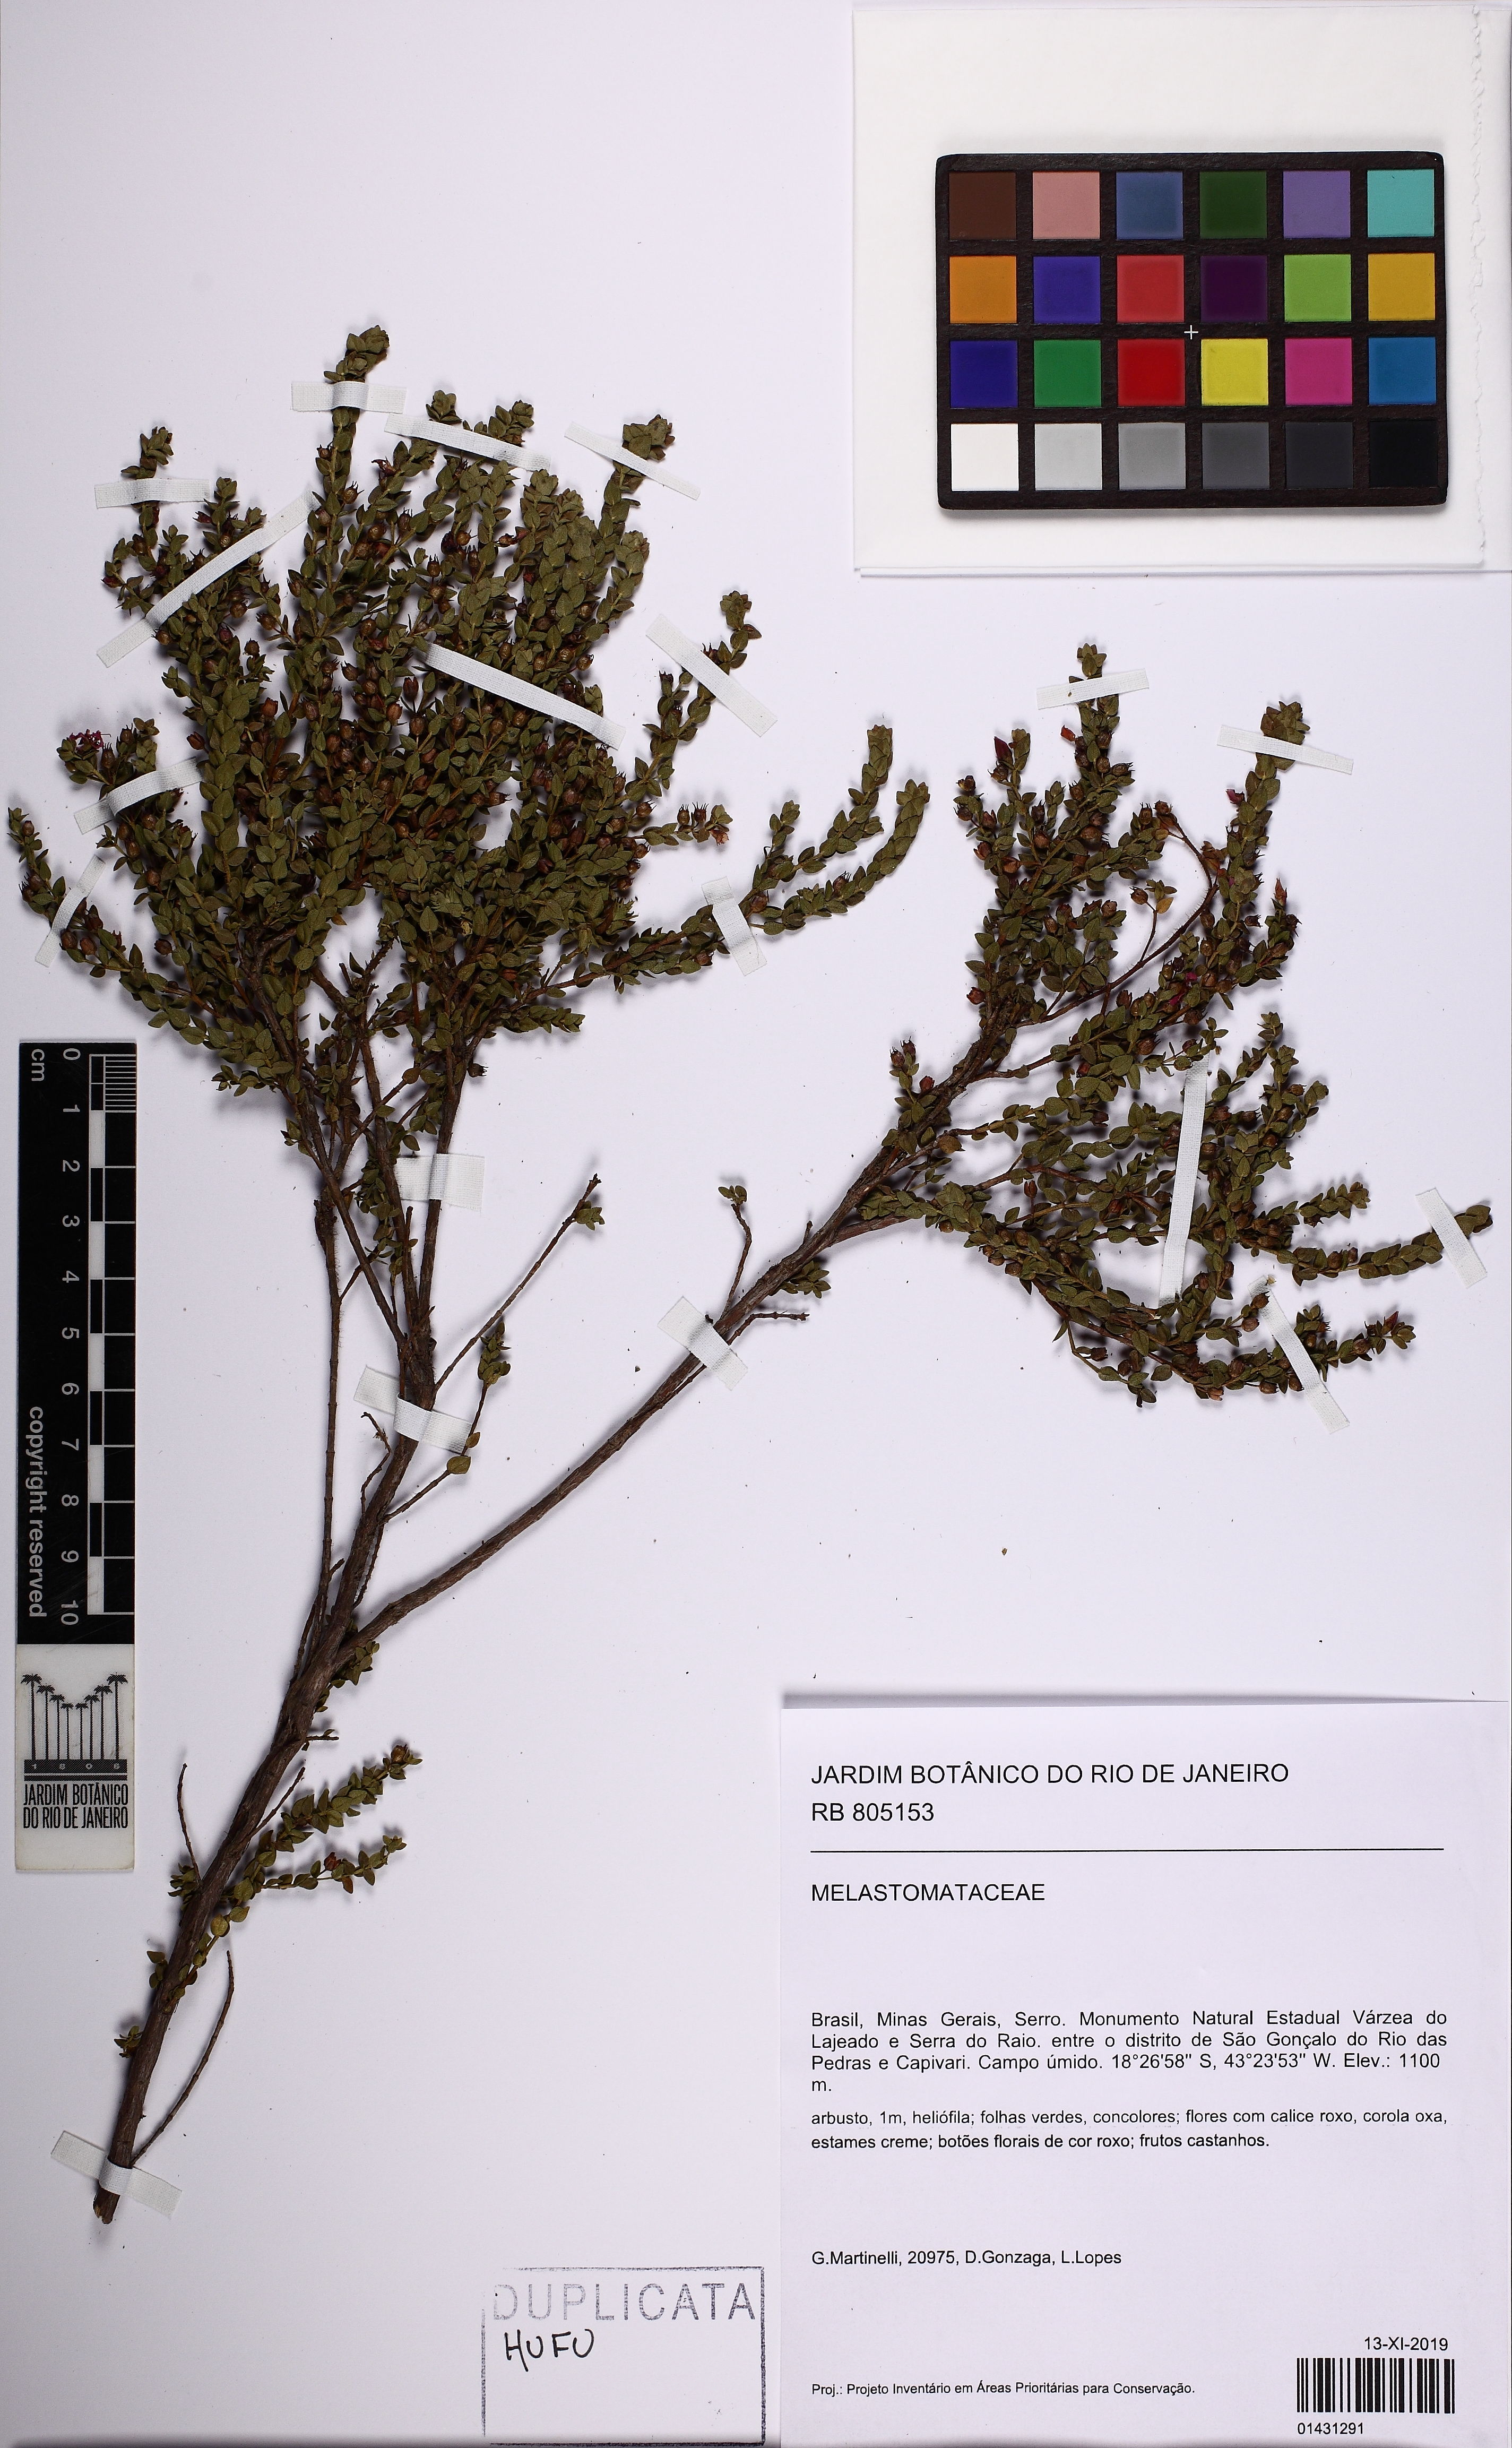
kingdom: Plantae
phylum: Tracheophyta
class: Magnoliopsida
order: Myrtales
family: Melastomataceae
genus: Microlicia
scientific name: Microlicia confertiflora
